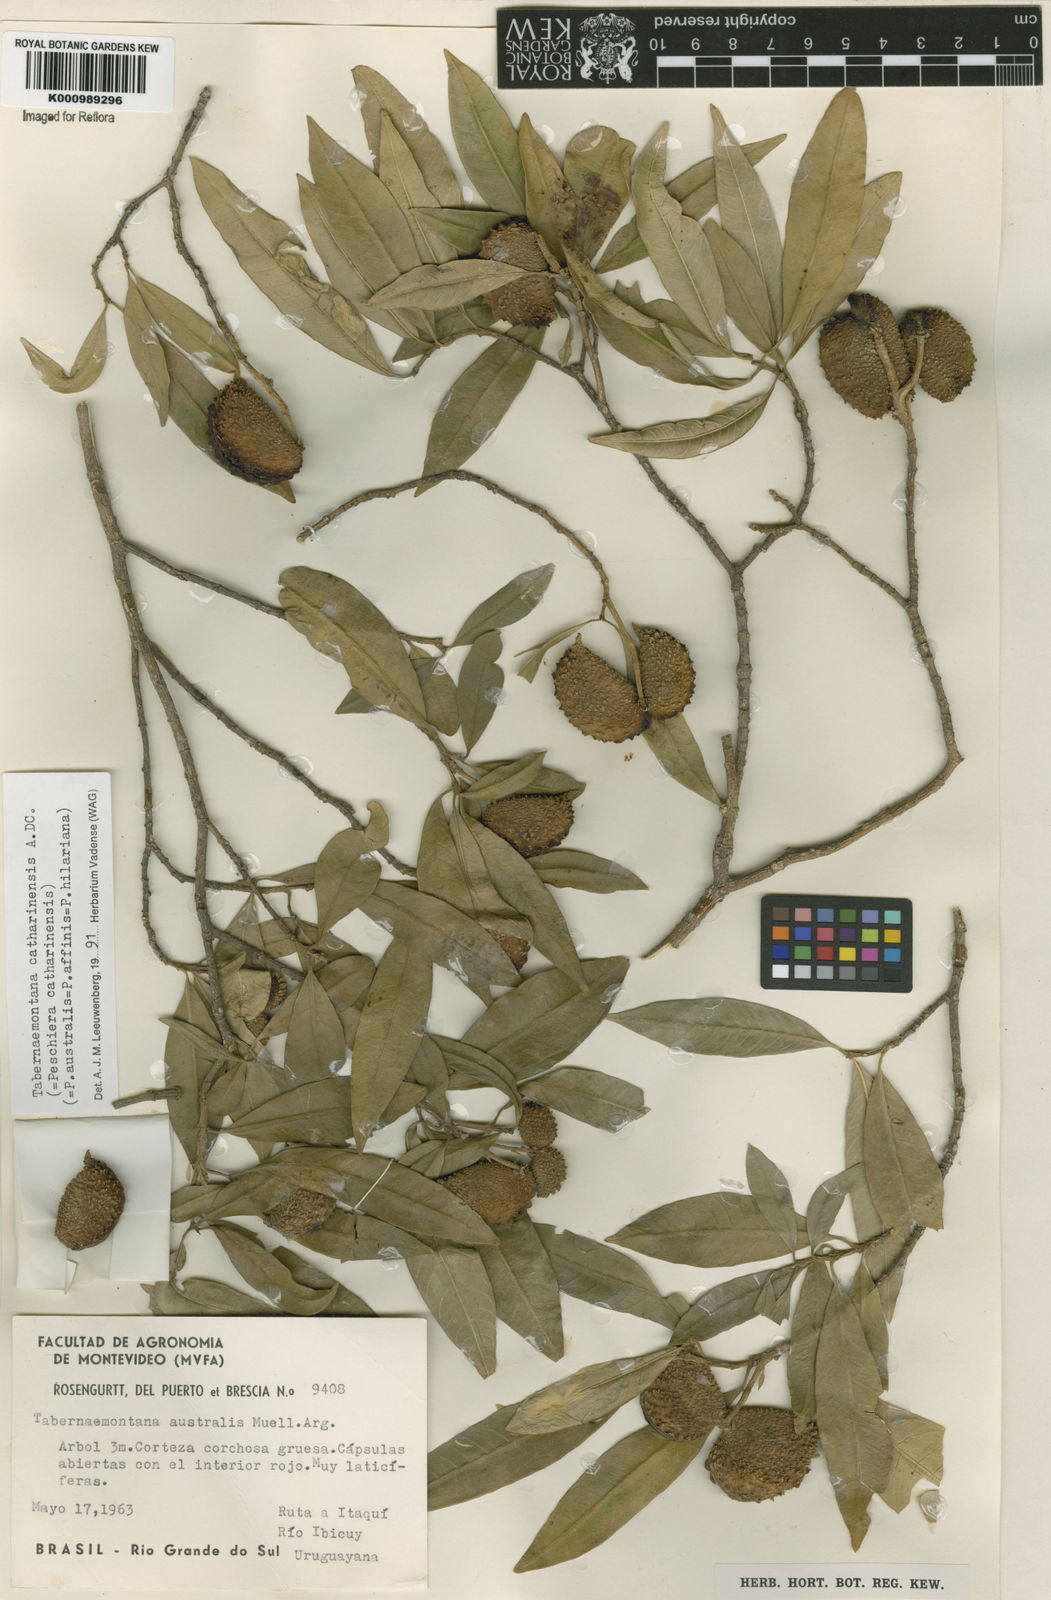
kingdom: Plantae
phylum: Tracheophyta
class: Magnoliopsida
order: Gentianales
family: Apocynaceae
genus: Tabernaemontana
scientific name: Tabernaemontana catharinensis
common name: Pinwheel-flower
